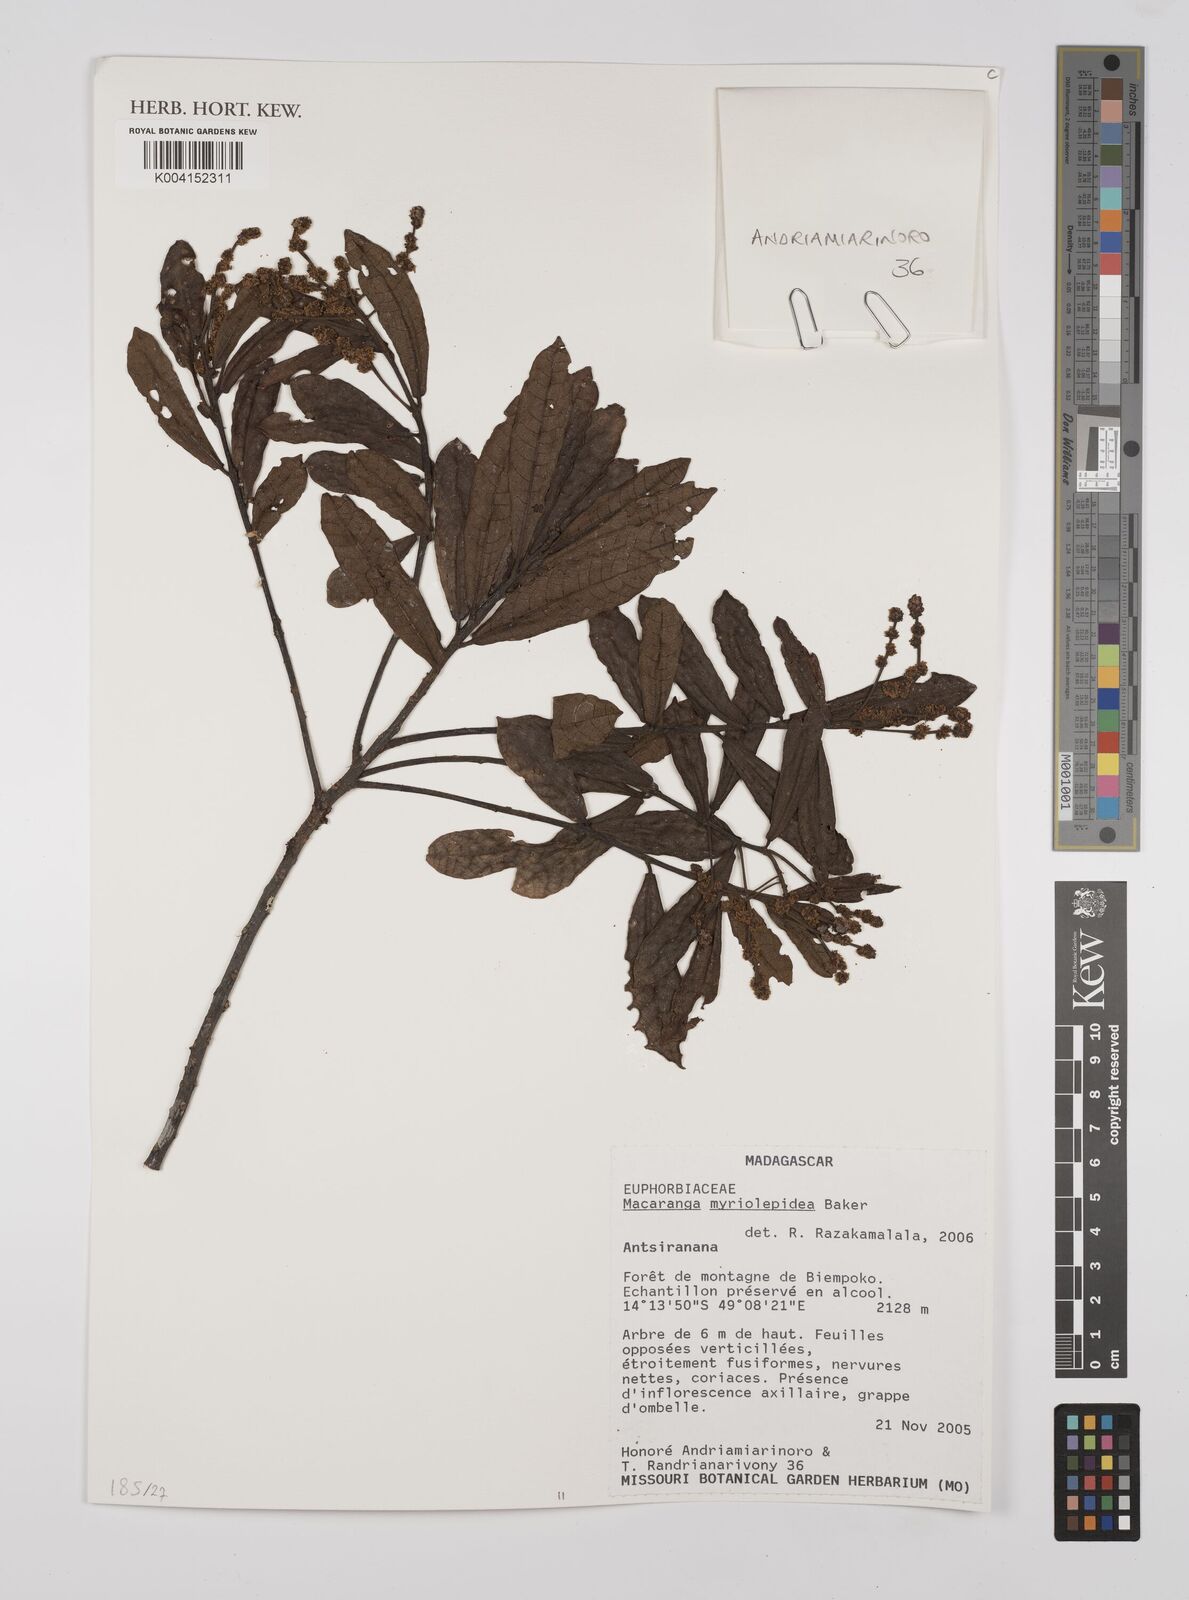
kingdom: Plantae
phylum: Tracheophyta
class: Magnoliopsida
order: Malpighiales
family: Euphorbiaceae
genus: Macaranga
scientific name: Macaranga myriolepida
